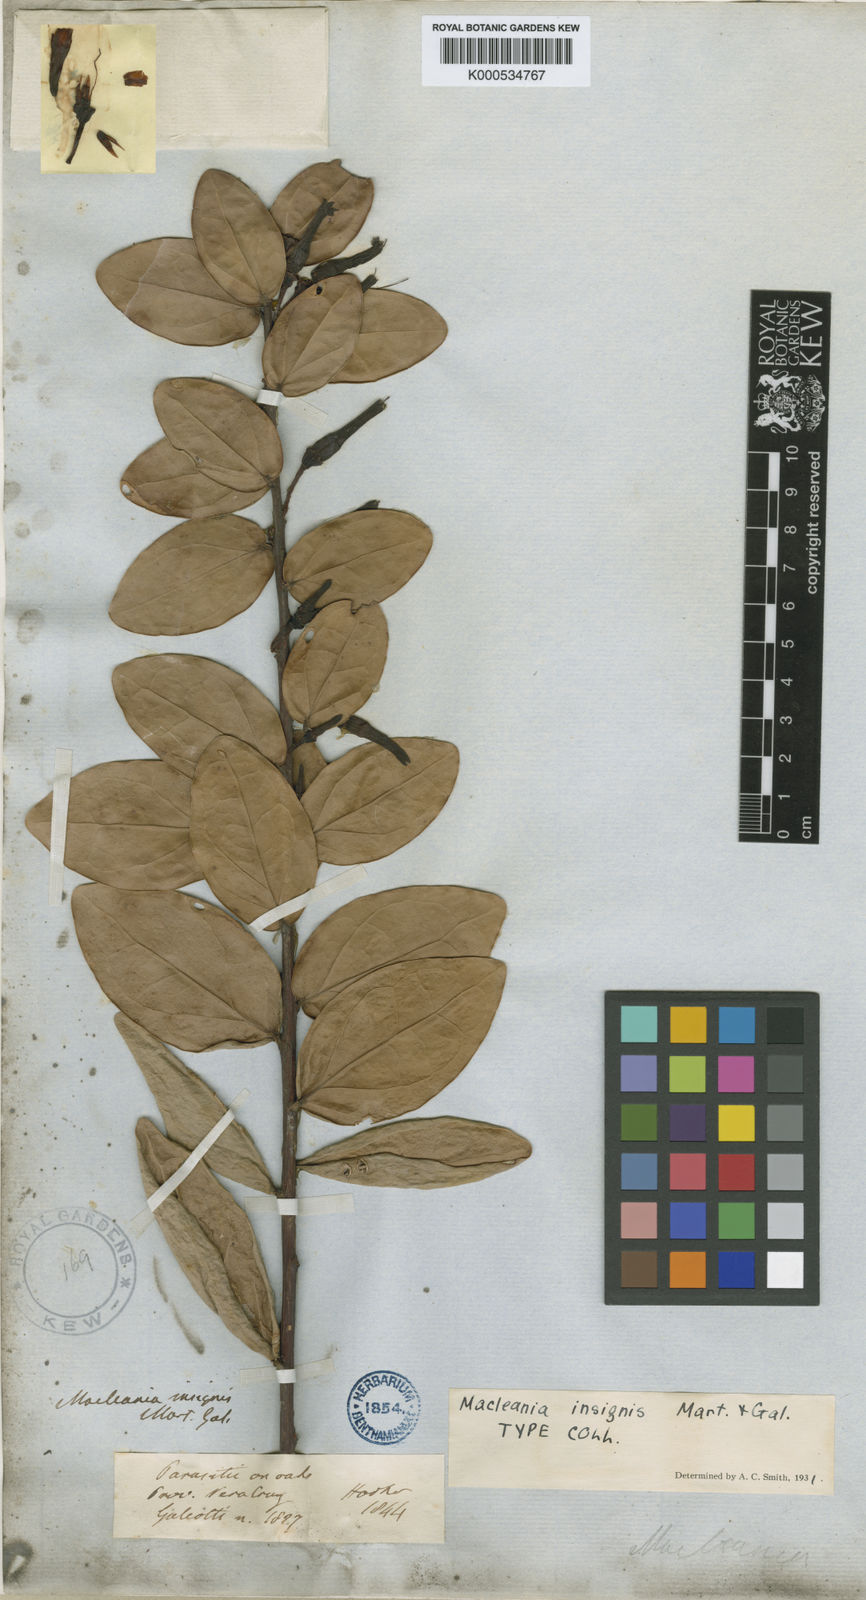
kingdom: Plantae
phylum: Tracheophyta
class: Magnoliopsida
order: Ericales
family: Ericaceae
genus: Macleania
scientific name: Macleania insignis
